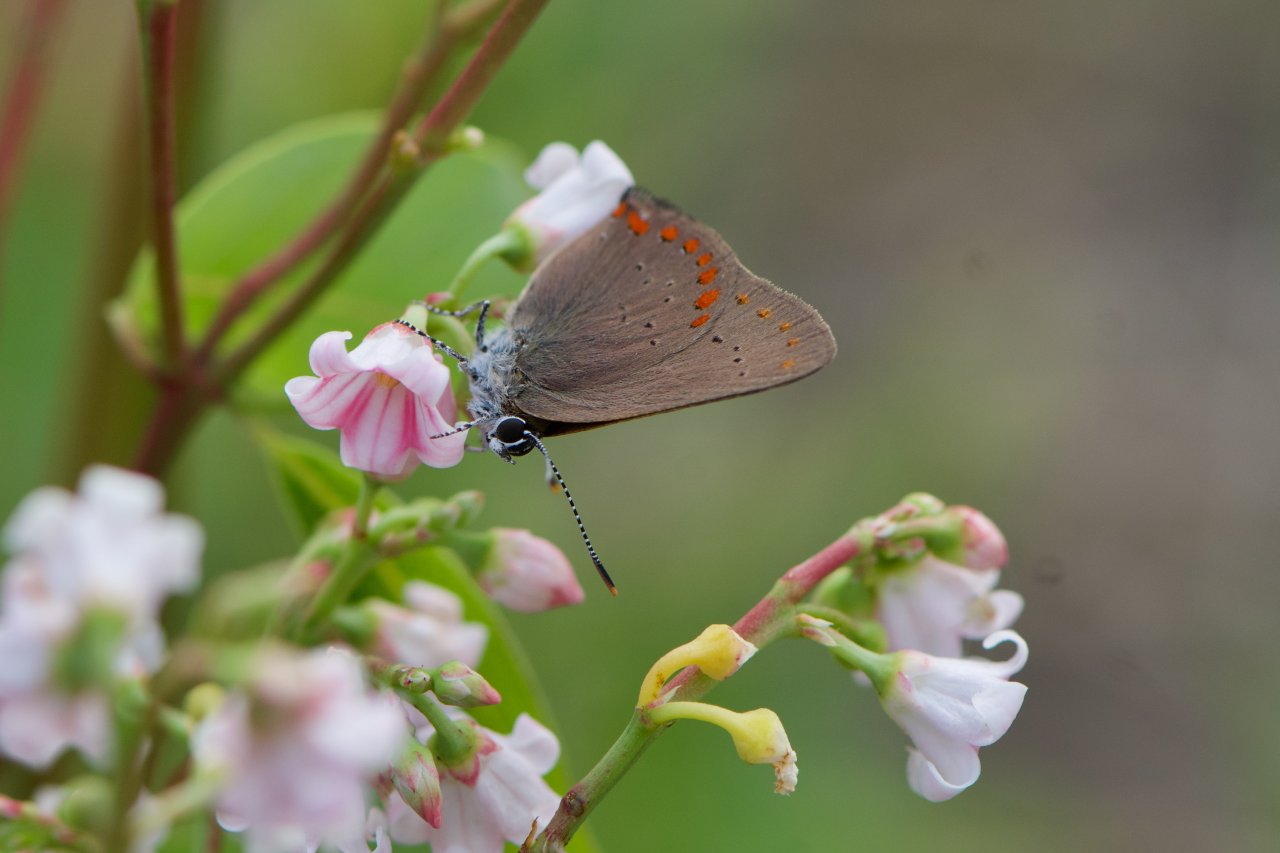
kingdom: Animalia
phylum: Arthropoda
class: Insecta
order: Lepidoptera
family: Lycaenidae
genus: Harkenclenus
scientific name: Harkenclenus titus
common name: Coral Hairstreak
